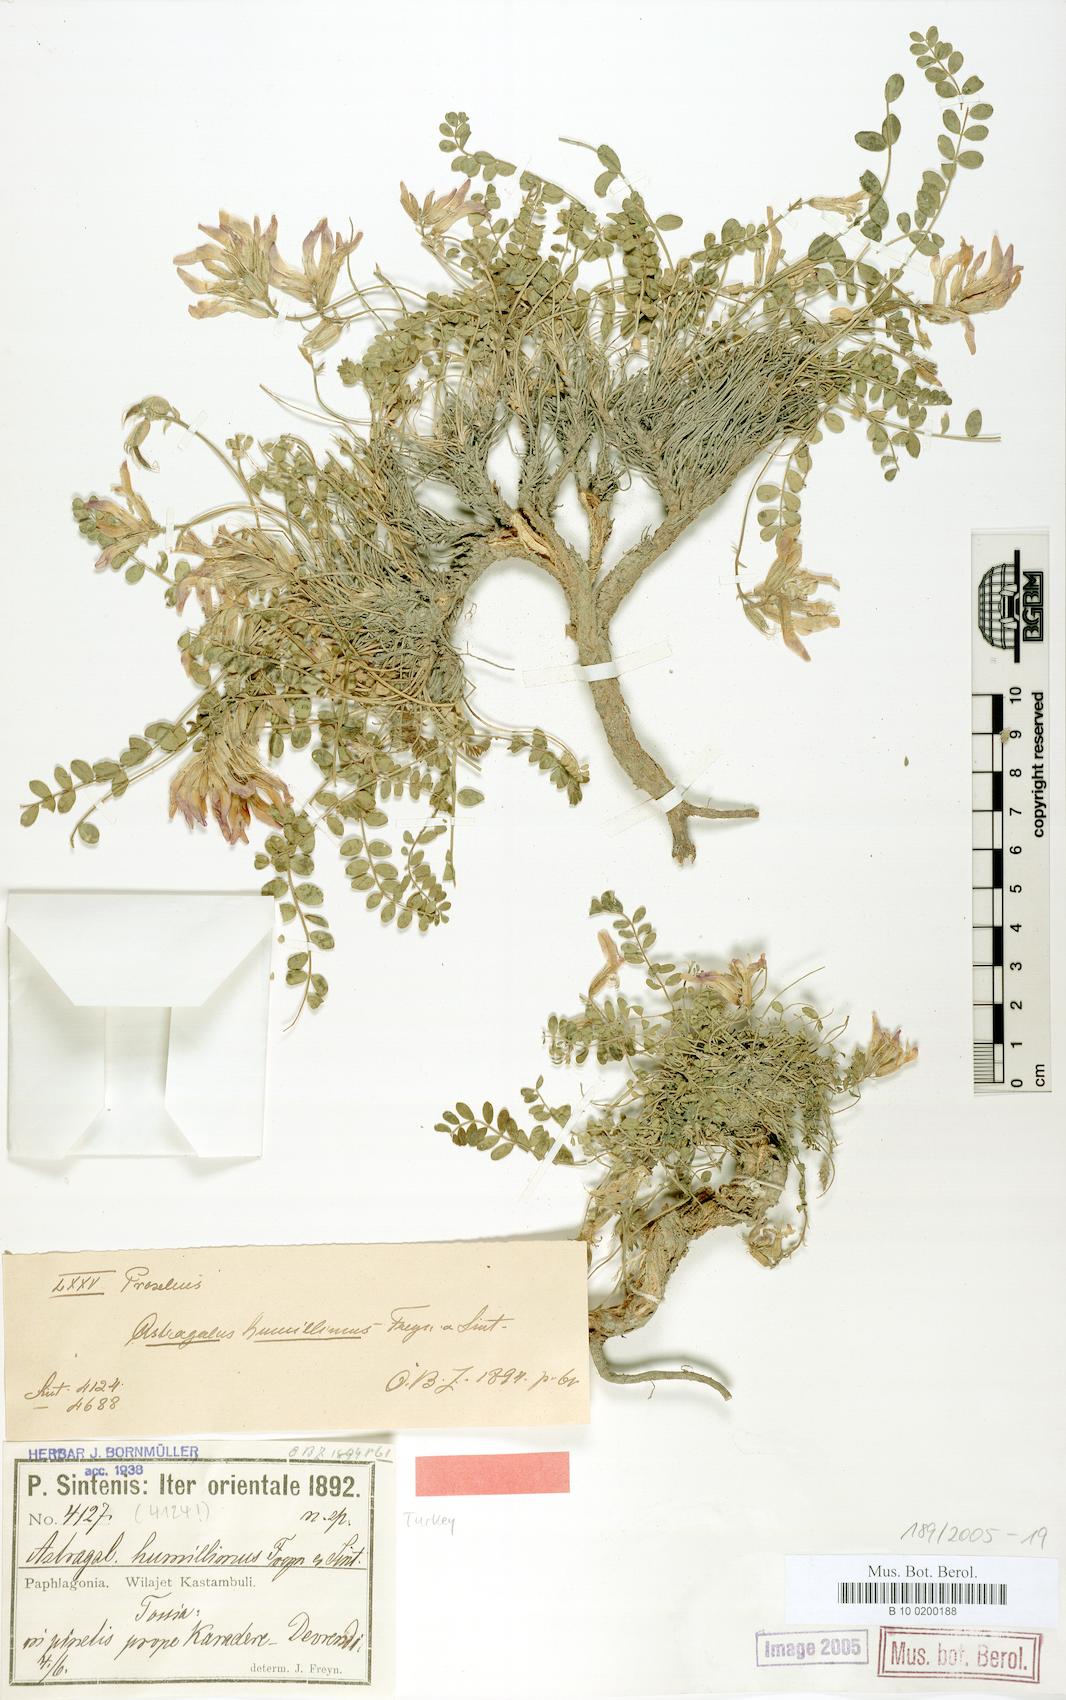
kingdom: Plantae
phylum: Tracheophyta
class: Magnoliopsida
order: Fabales
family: Fabaceae
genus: Astragalus
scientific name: Astragalus humillimus
